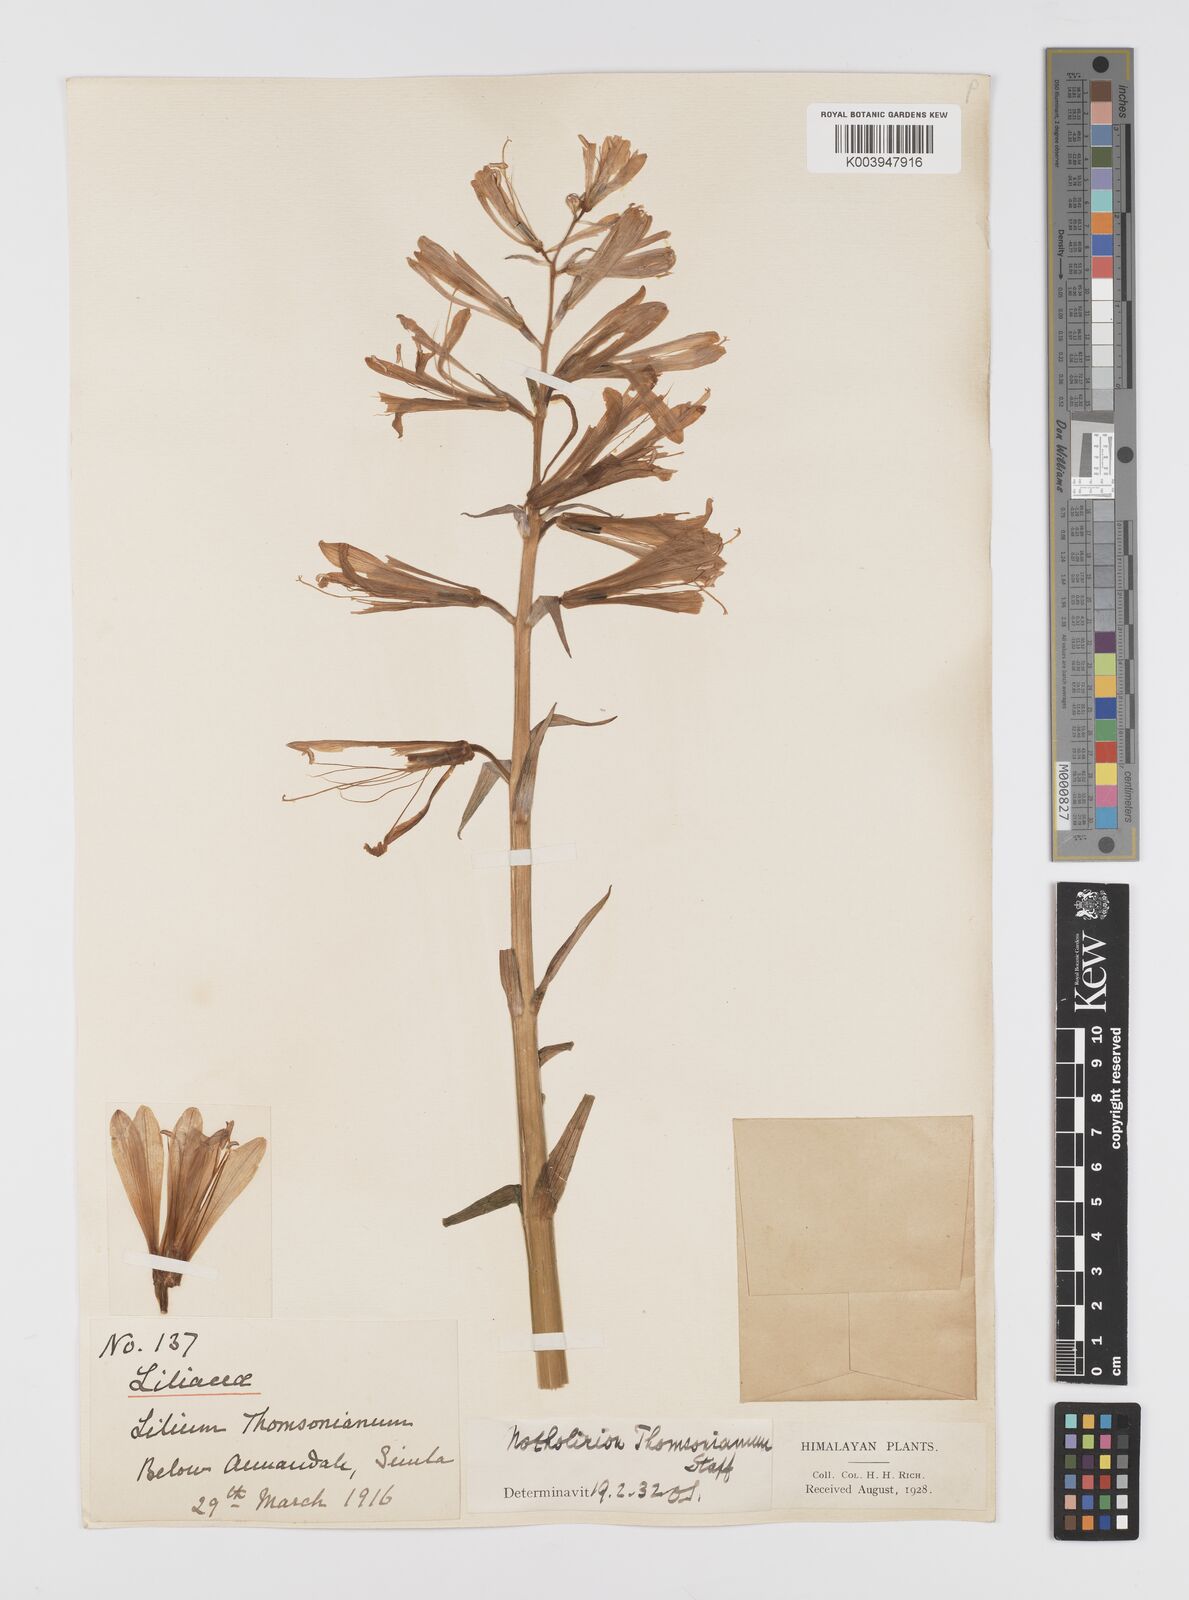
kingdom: Plantae
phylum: Tracheophyta
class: Liliopsida
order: Liliales
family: Liliaceae
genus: Notholirion
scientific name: Notholirion thomsonianum
